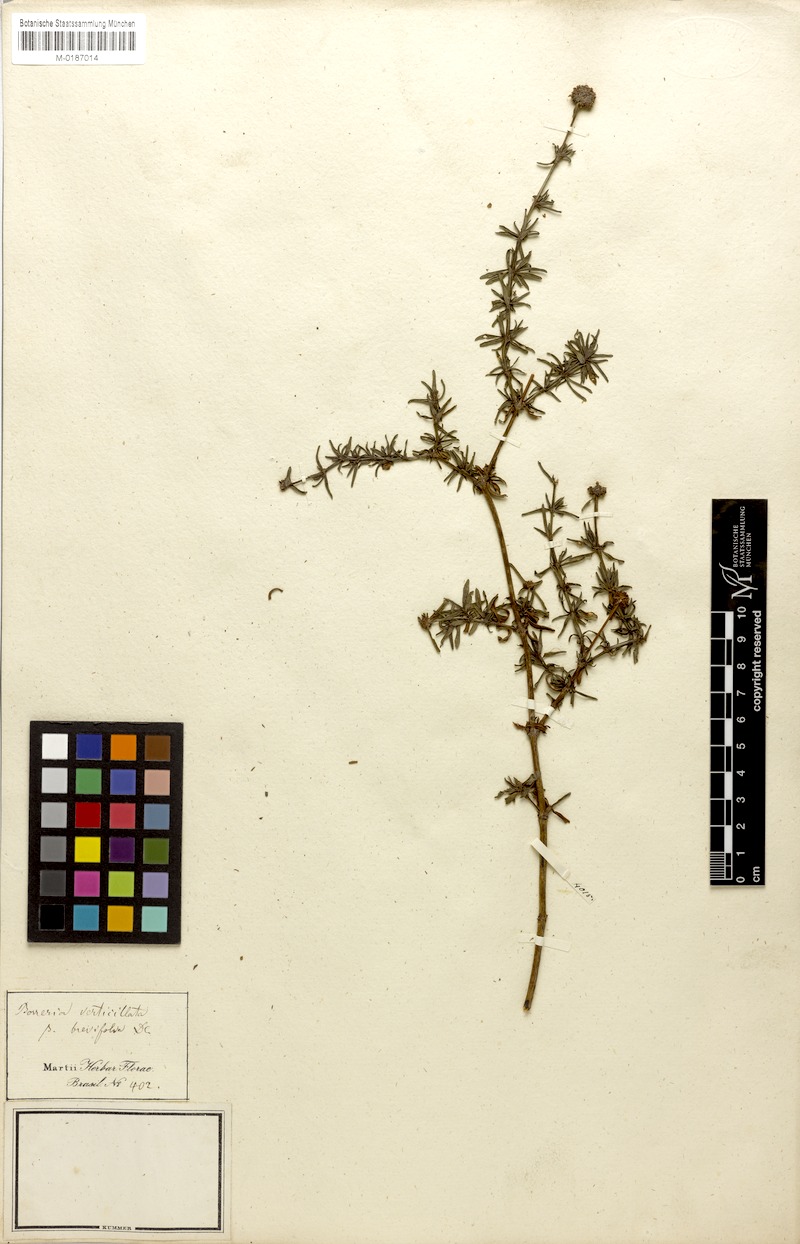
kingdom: Plantae
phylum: Tracheophyta
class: Magnoliopsida
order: Gentianales
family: Rubiaceae
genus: Spermacoce
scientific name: Spermacoce verticillata
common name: Shrubby false buttonweed
